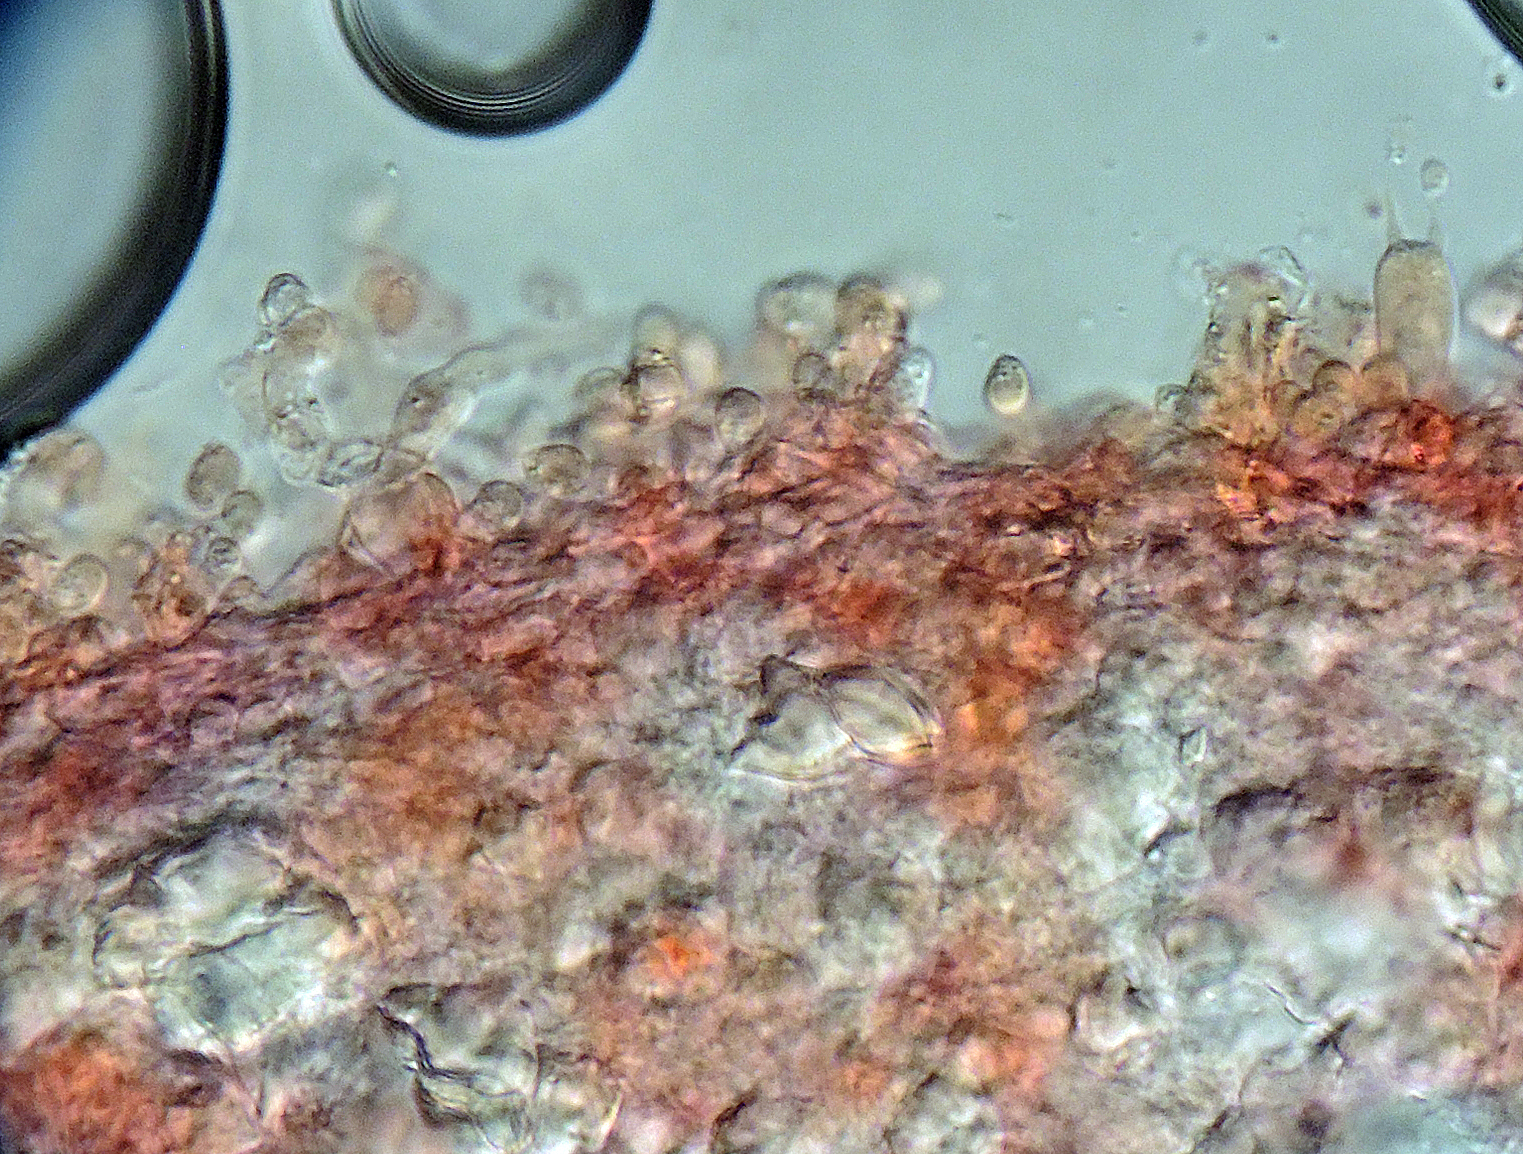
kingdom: Fungi
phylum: Basidiomycota
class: Agaricomycetes
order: Hymenochaetales
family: Rickenellaceae
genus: Bryopistillaria
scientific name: Bryopistillaria sagittiformis
